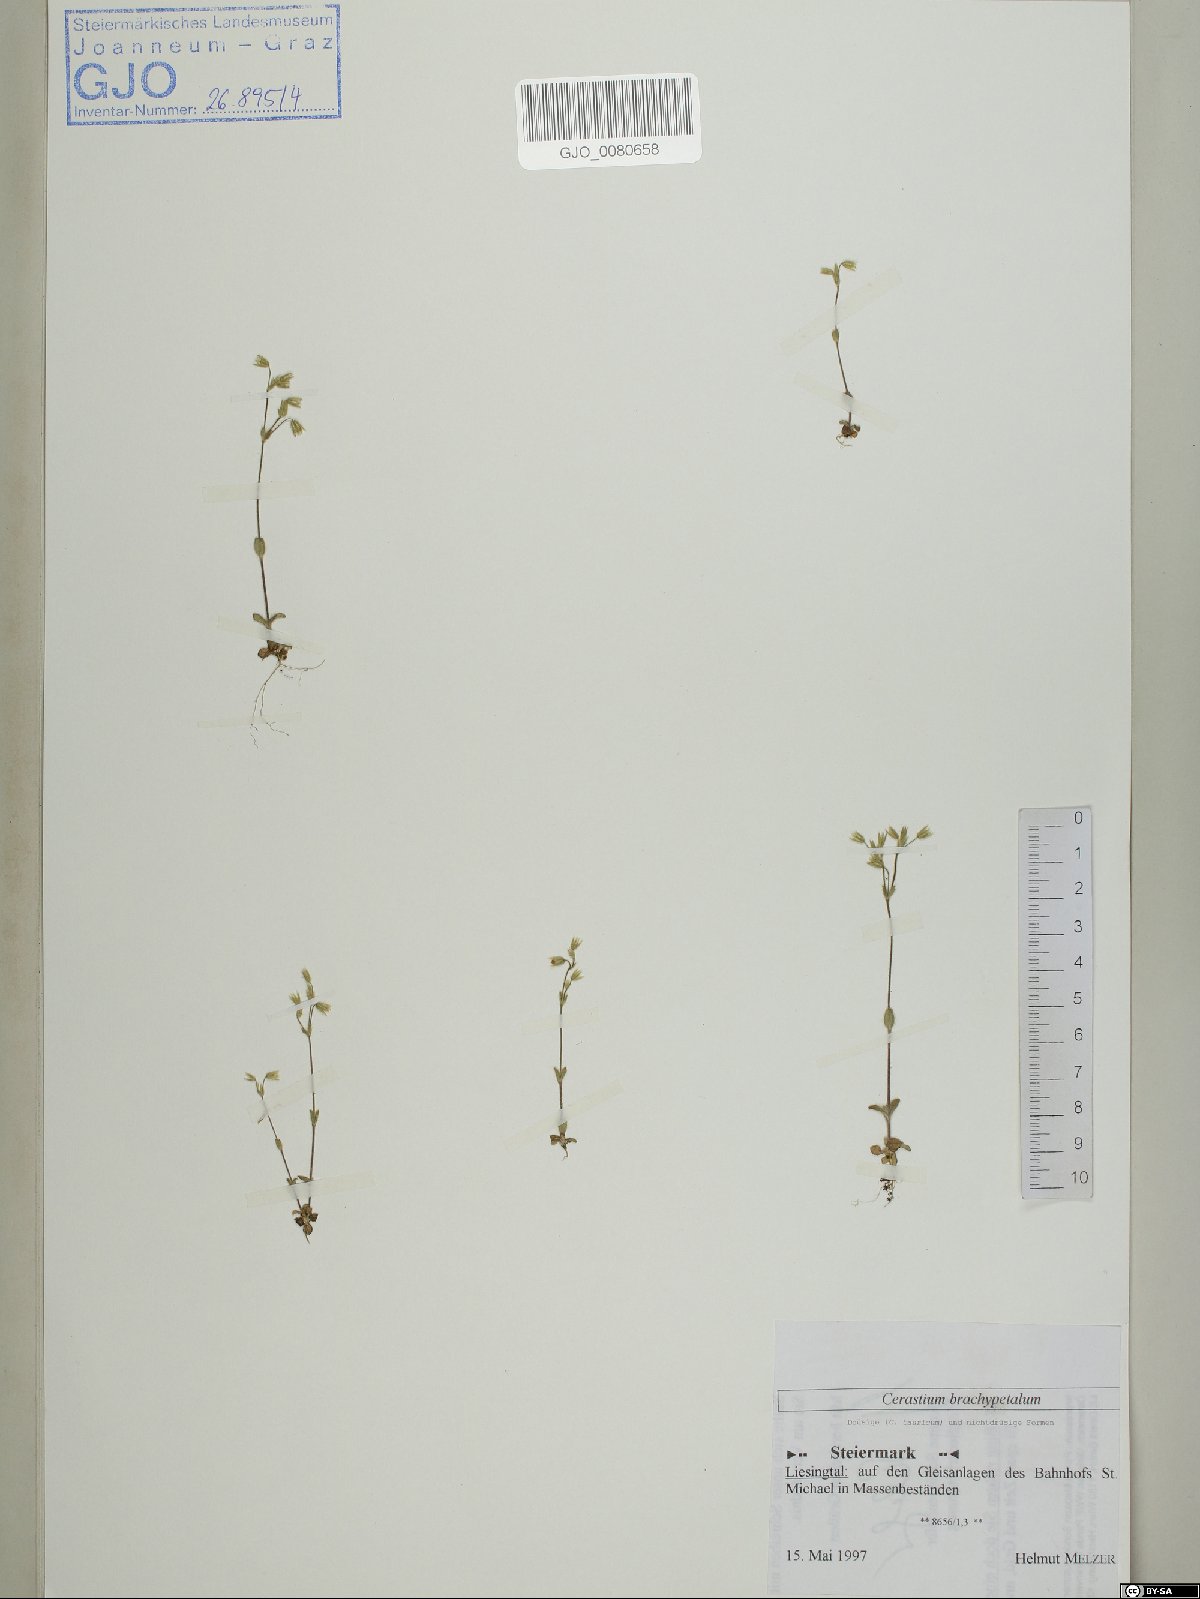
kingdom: Plantae
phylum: Tracheophyta
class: Magnoliopsida
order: Caryophyllales
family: Caryophyllaceae
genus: Cerastium
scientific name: Cerastium brachypetalum
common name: Grey mouse-ear
